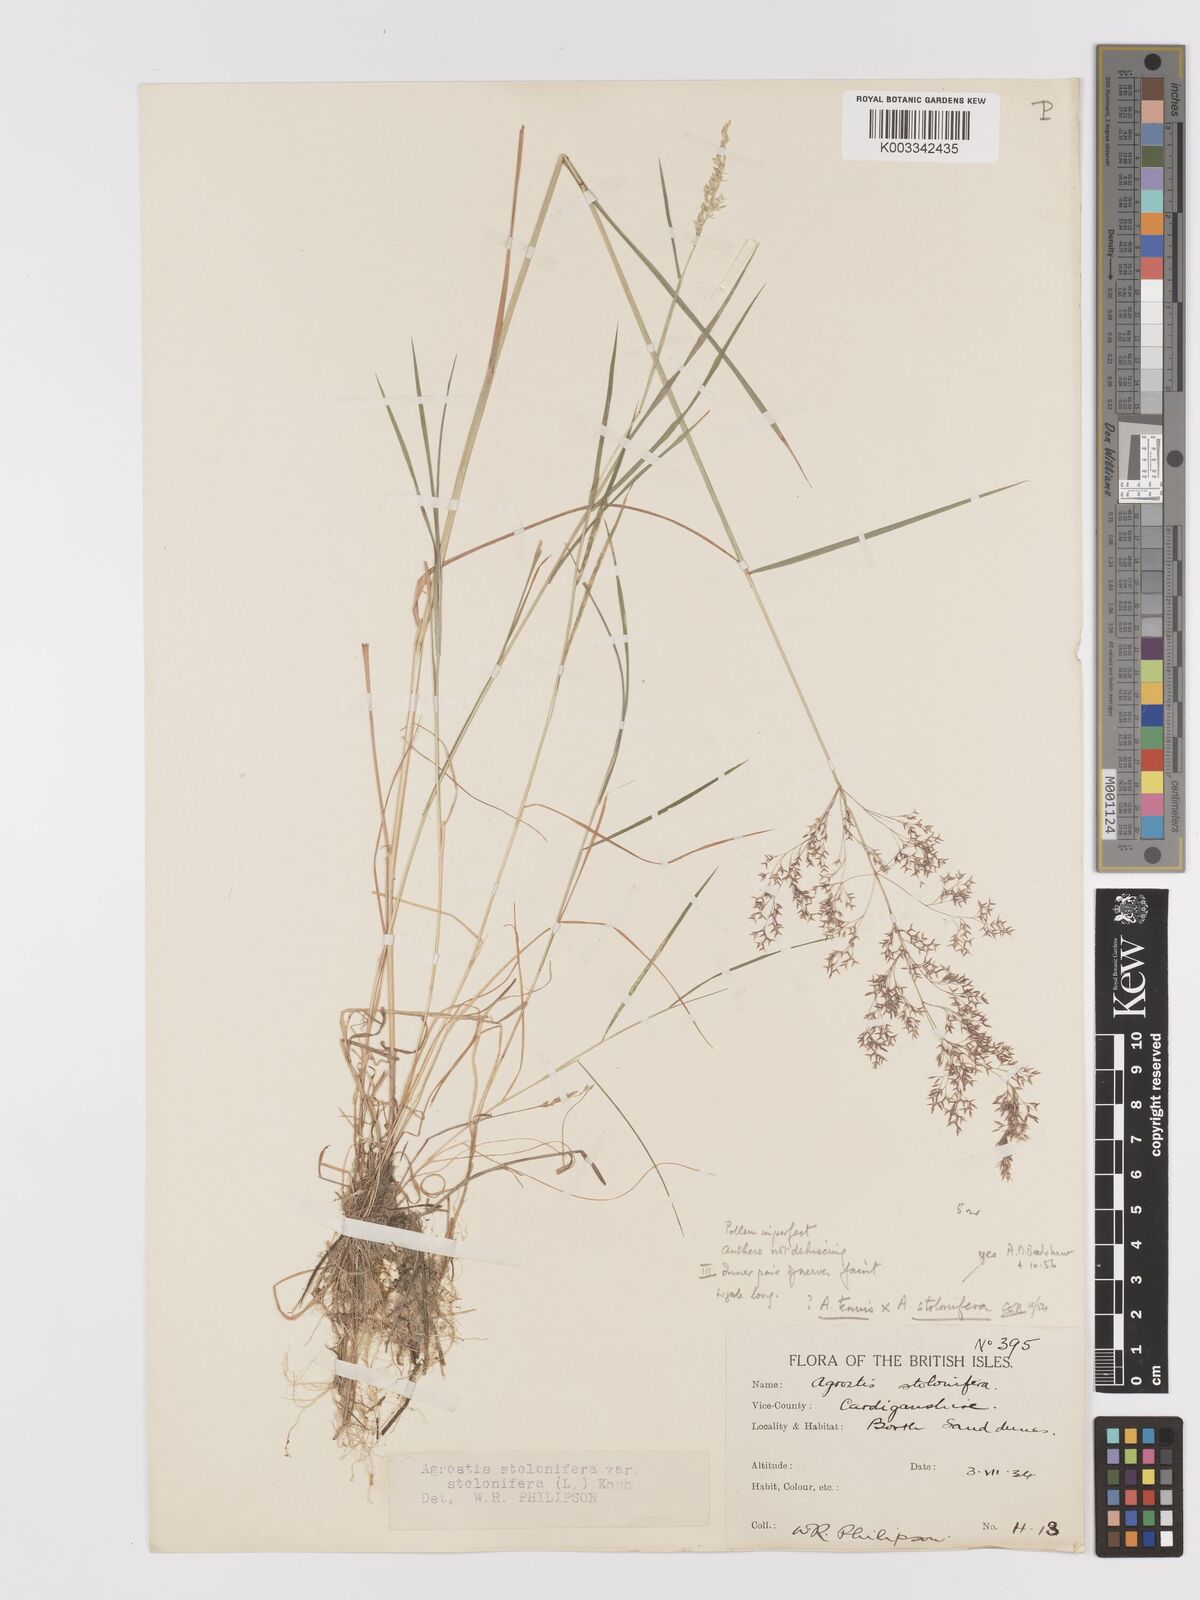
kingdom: Plantae
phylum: Tracheophyta
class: Liliopsida
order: Poales
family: Poaceae
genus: Agrostis
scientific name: Agrostis capillaris
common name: Colonial bentgrass
